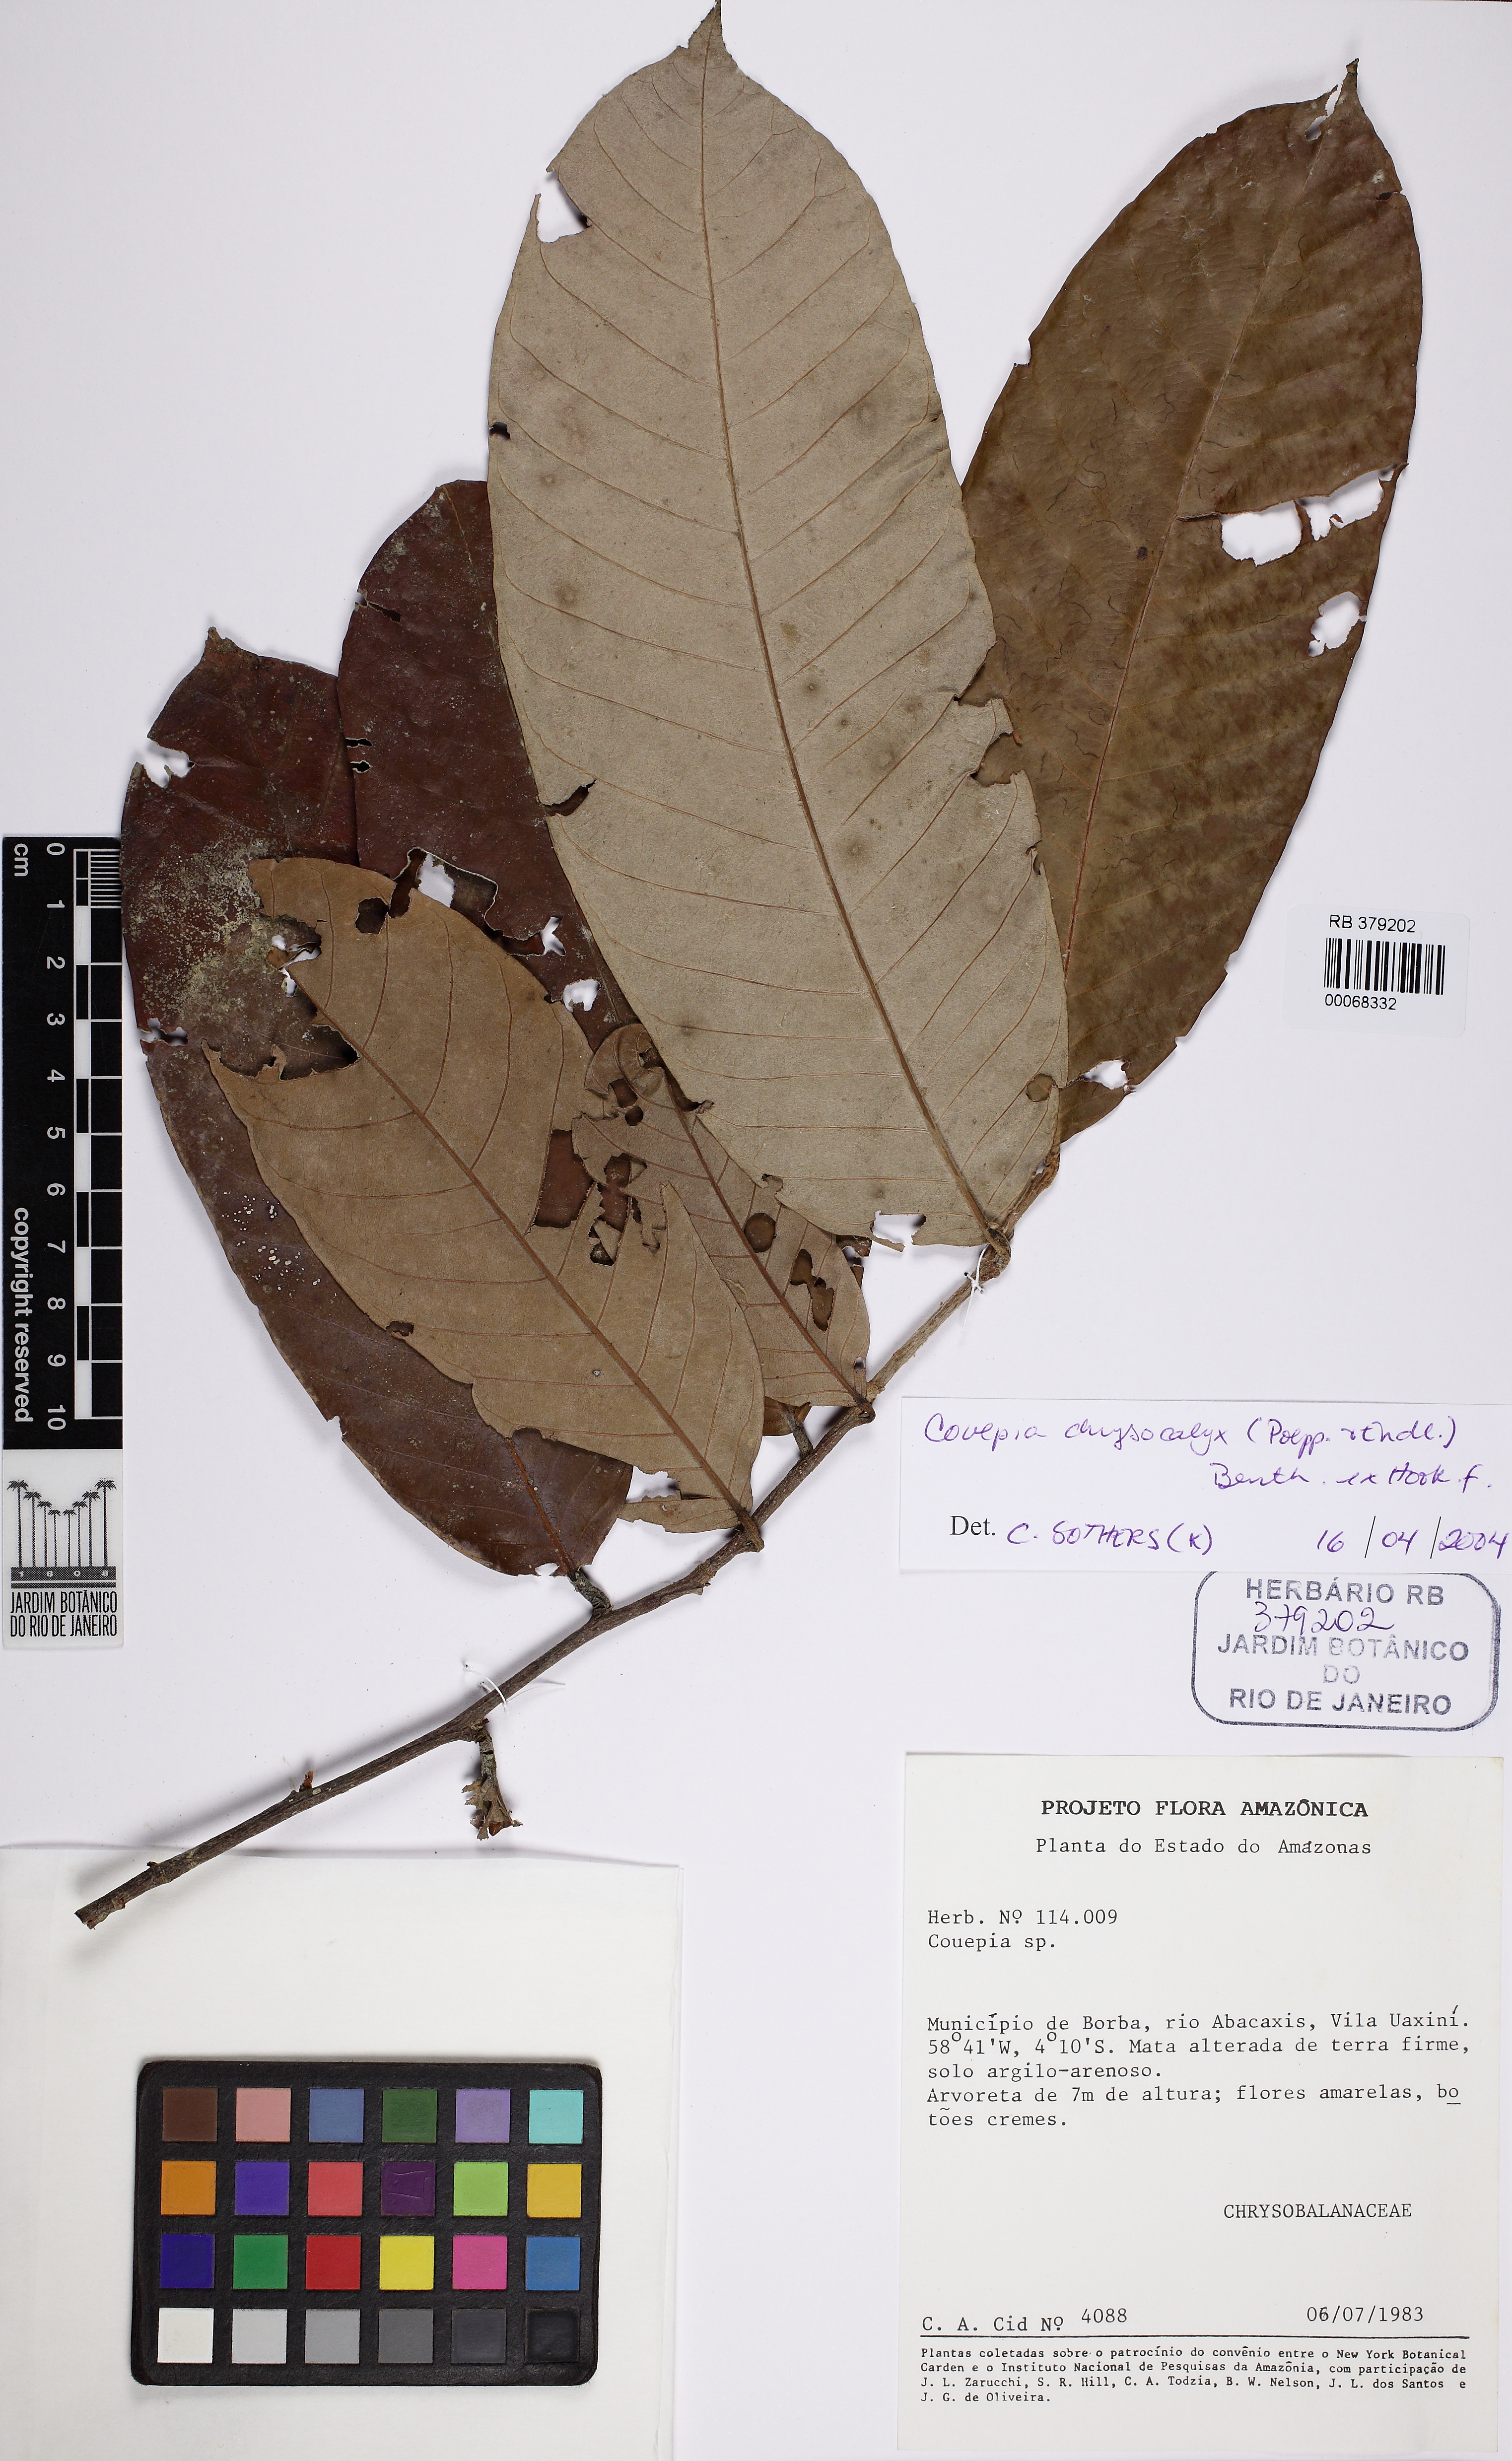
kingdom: Plantae
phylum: Tracheophyta
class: Magnoliopsida
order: Malpighiales
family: Chrysobalanaceae
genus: Couepia
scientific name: Couepia
